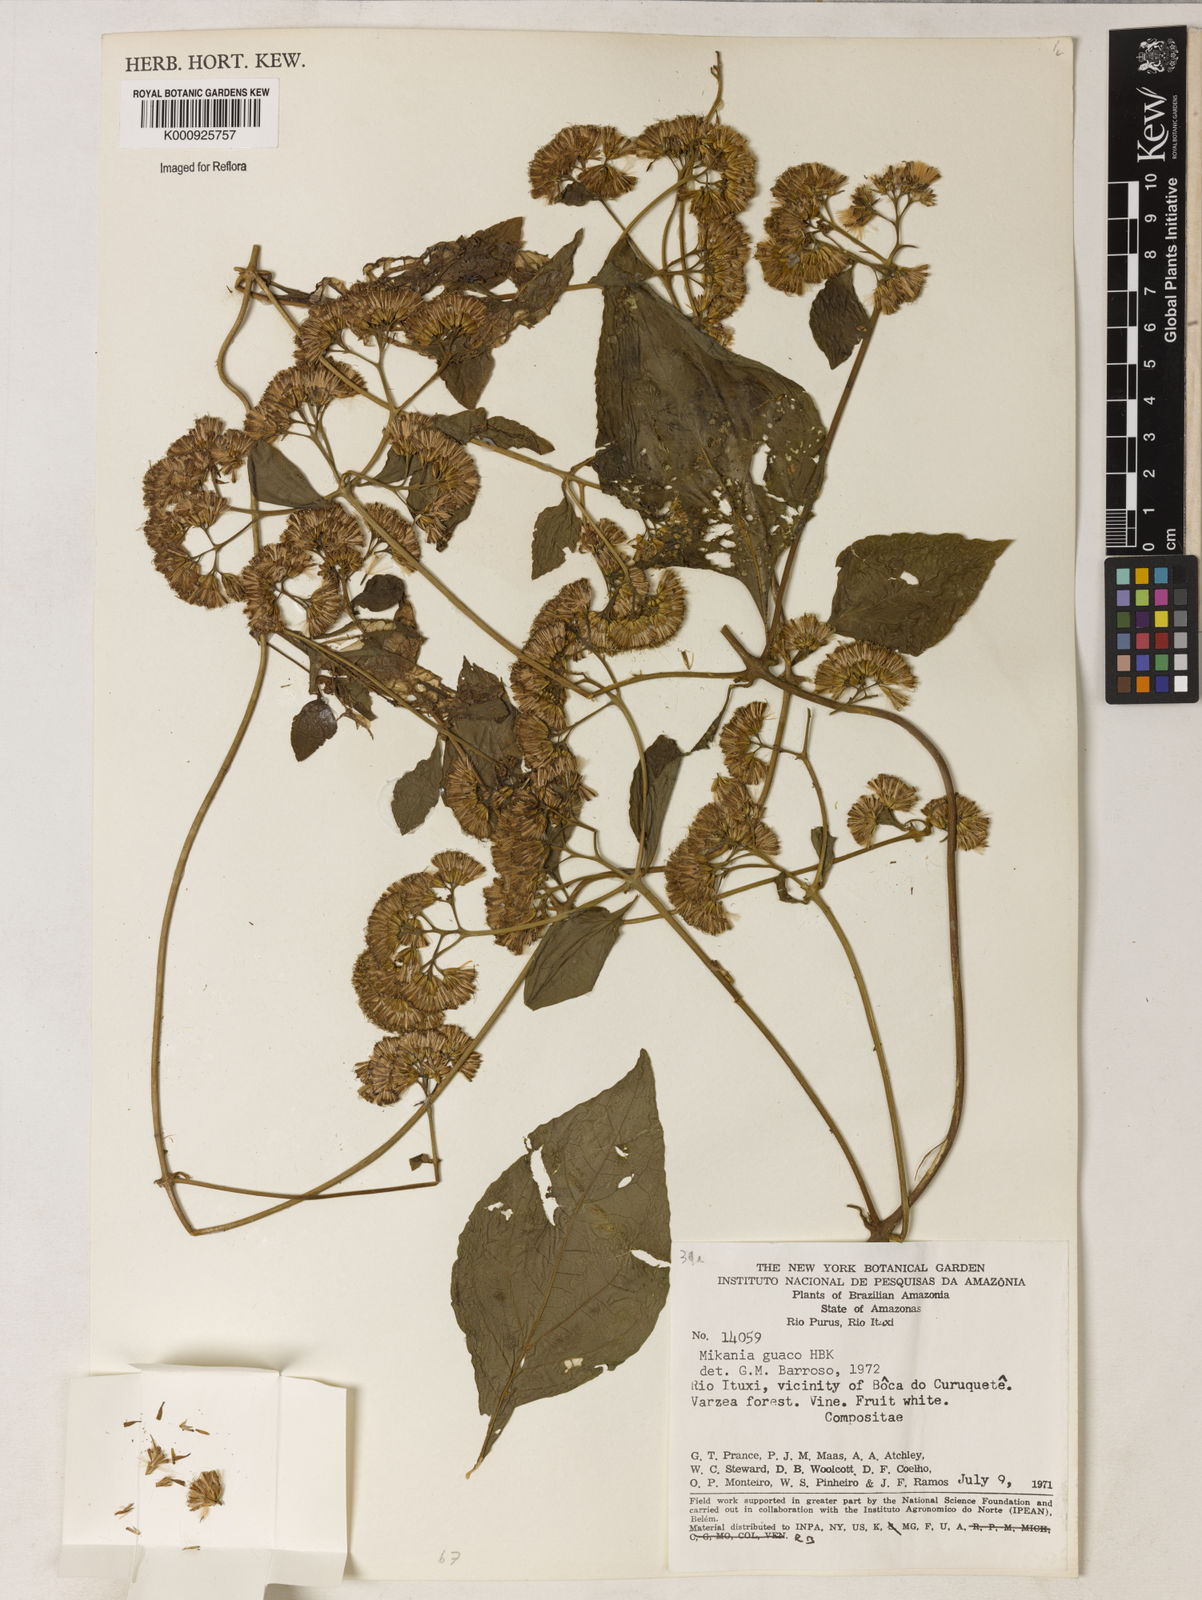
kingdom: Plantae
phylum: Tracheophyta
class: Magnoliopsida
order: Asterales
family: Asteraceae
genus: Mikania
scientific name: Mikania guaco
